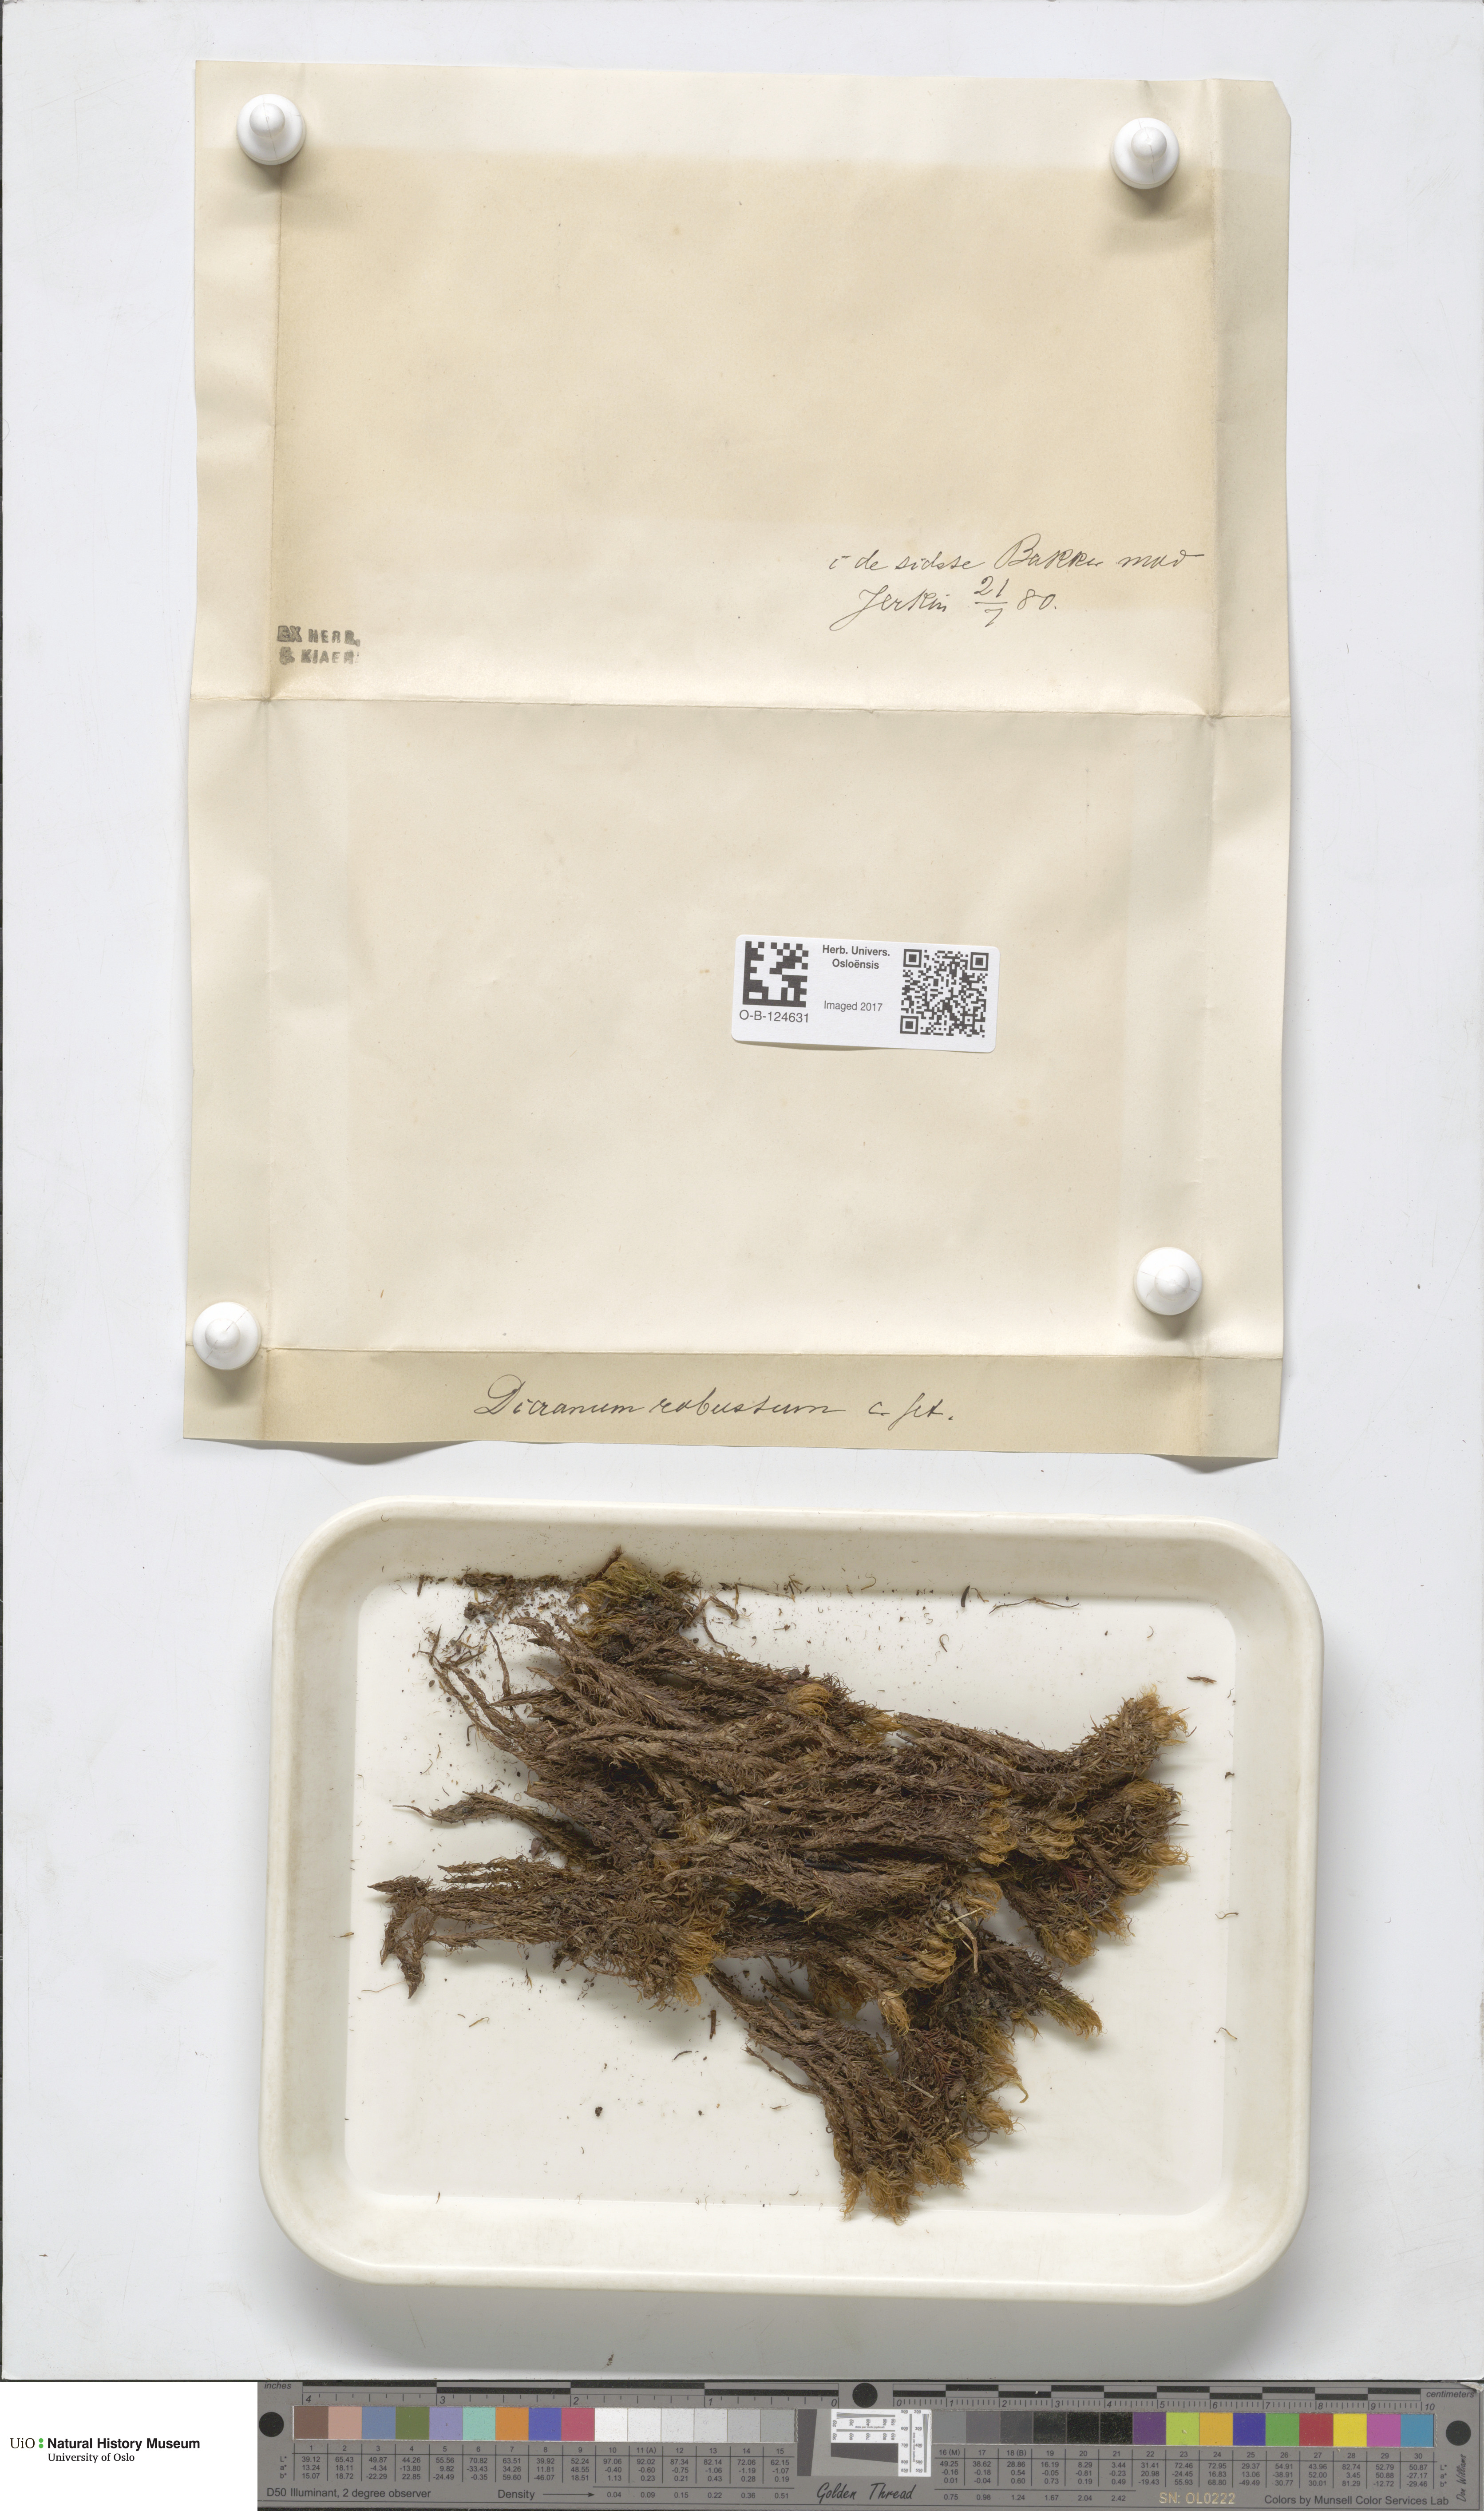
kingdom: Plantae
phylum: Bryophyta
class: Bryopsida
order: Dicranales
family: Dicranaceae
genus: Dicranum
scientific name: Dicranum drummondii
